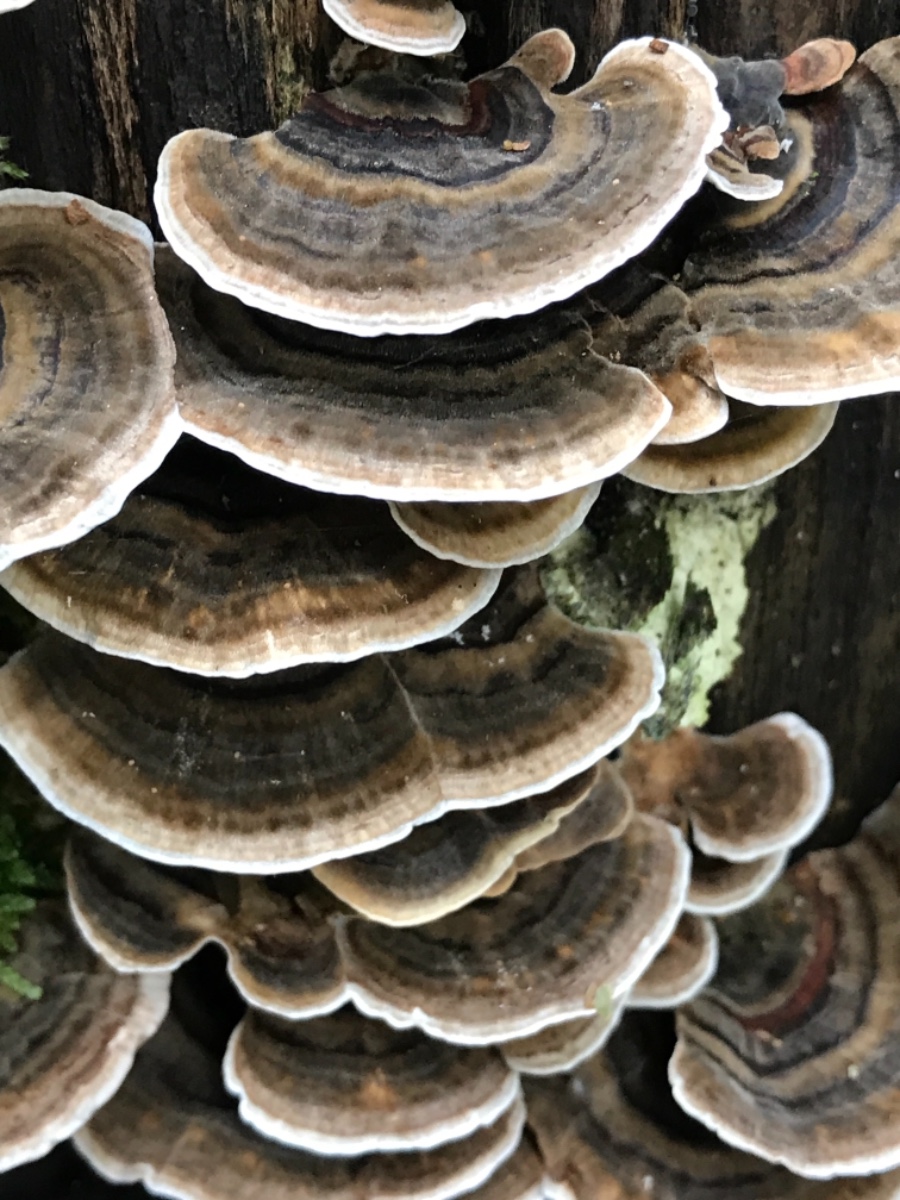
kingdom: Fungi
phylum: Basidiomycota
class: Agaricomycetes
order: Polyporales
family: Polyporaceae
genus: Trametes
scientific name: Trametes versicolor
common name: broget læderporesvamp
